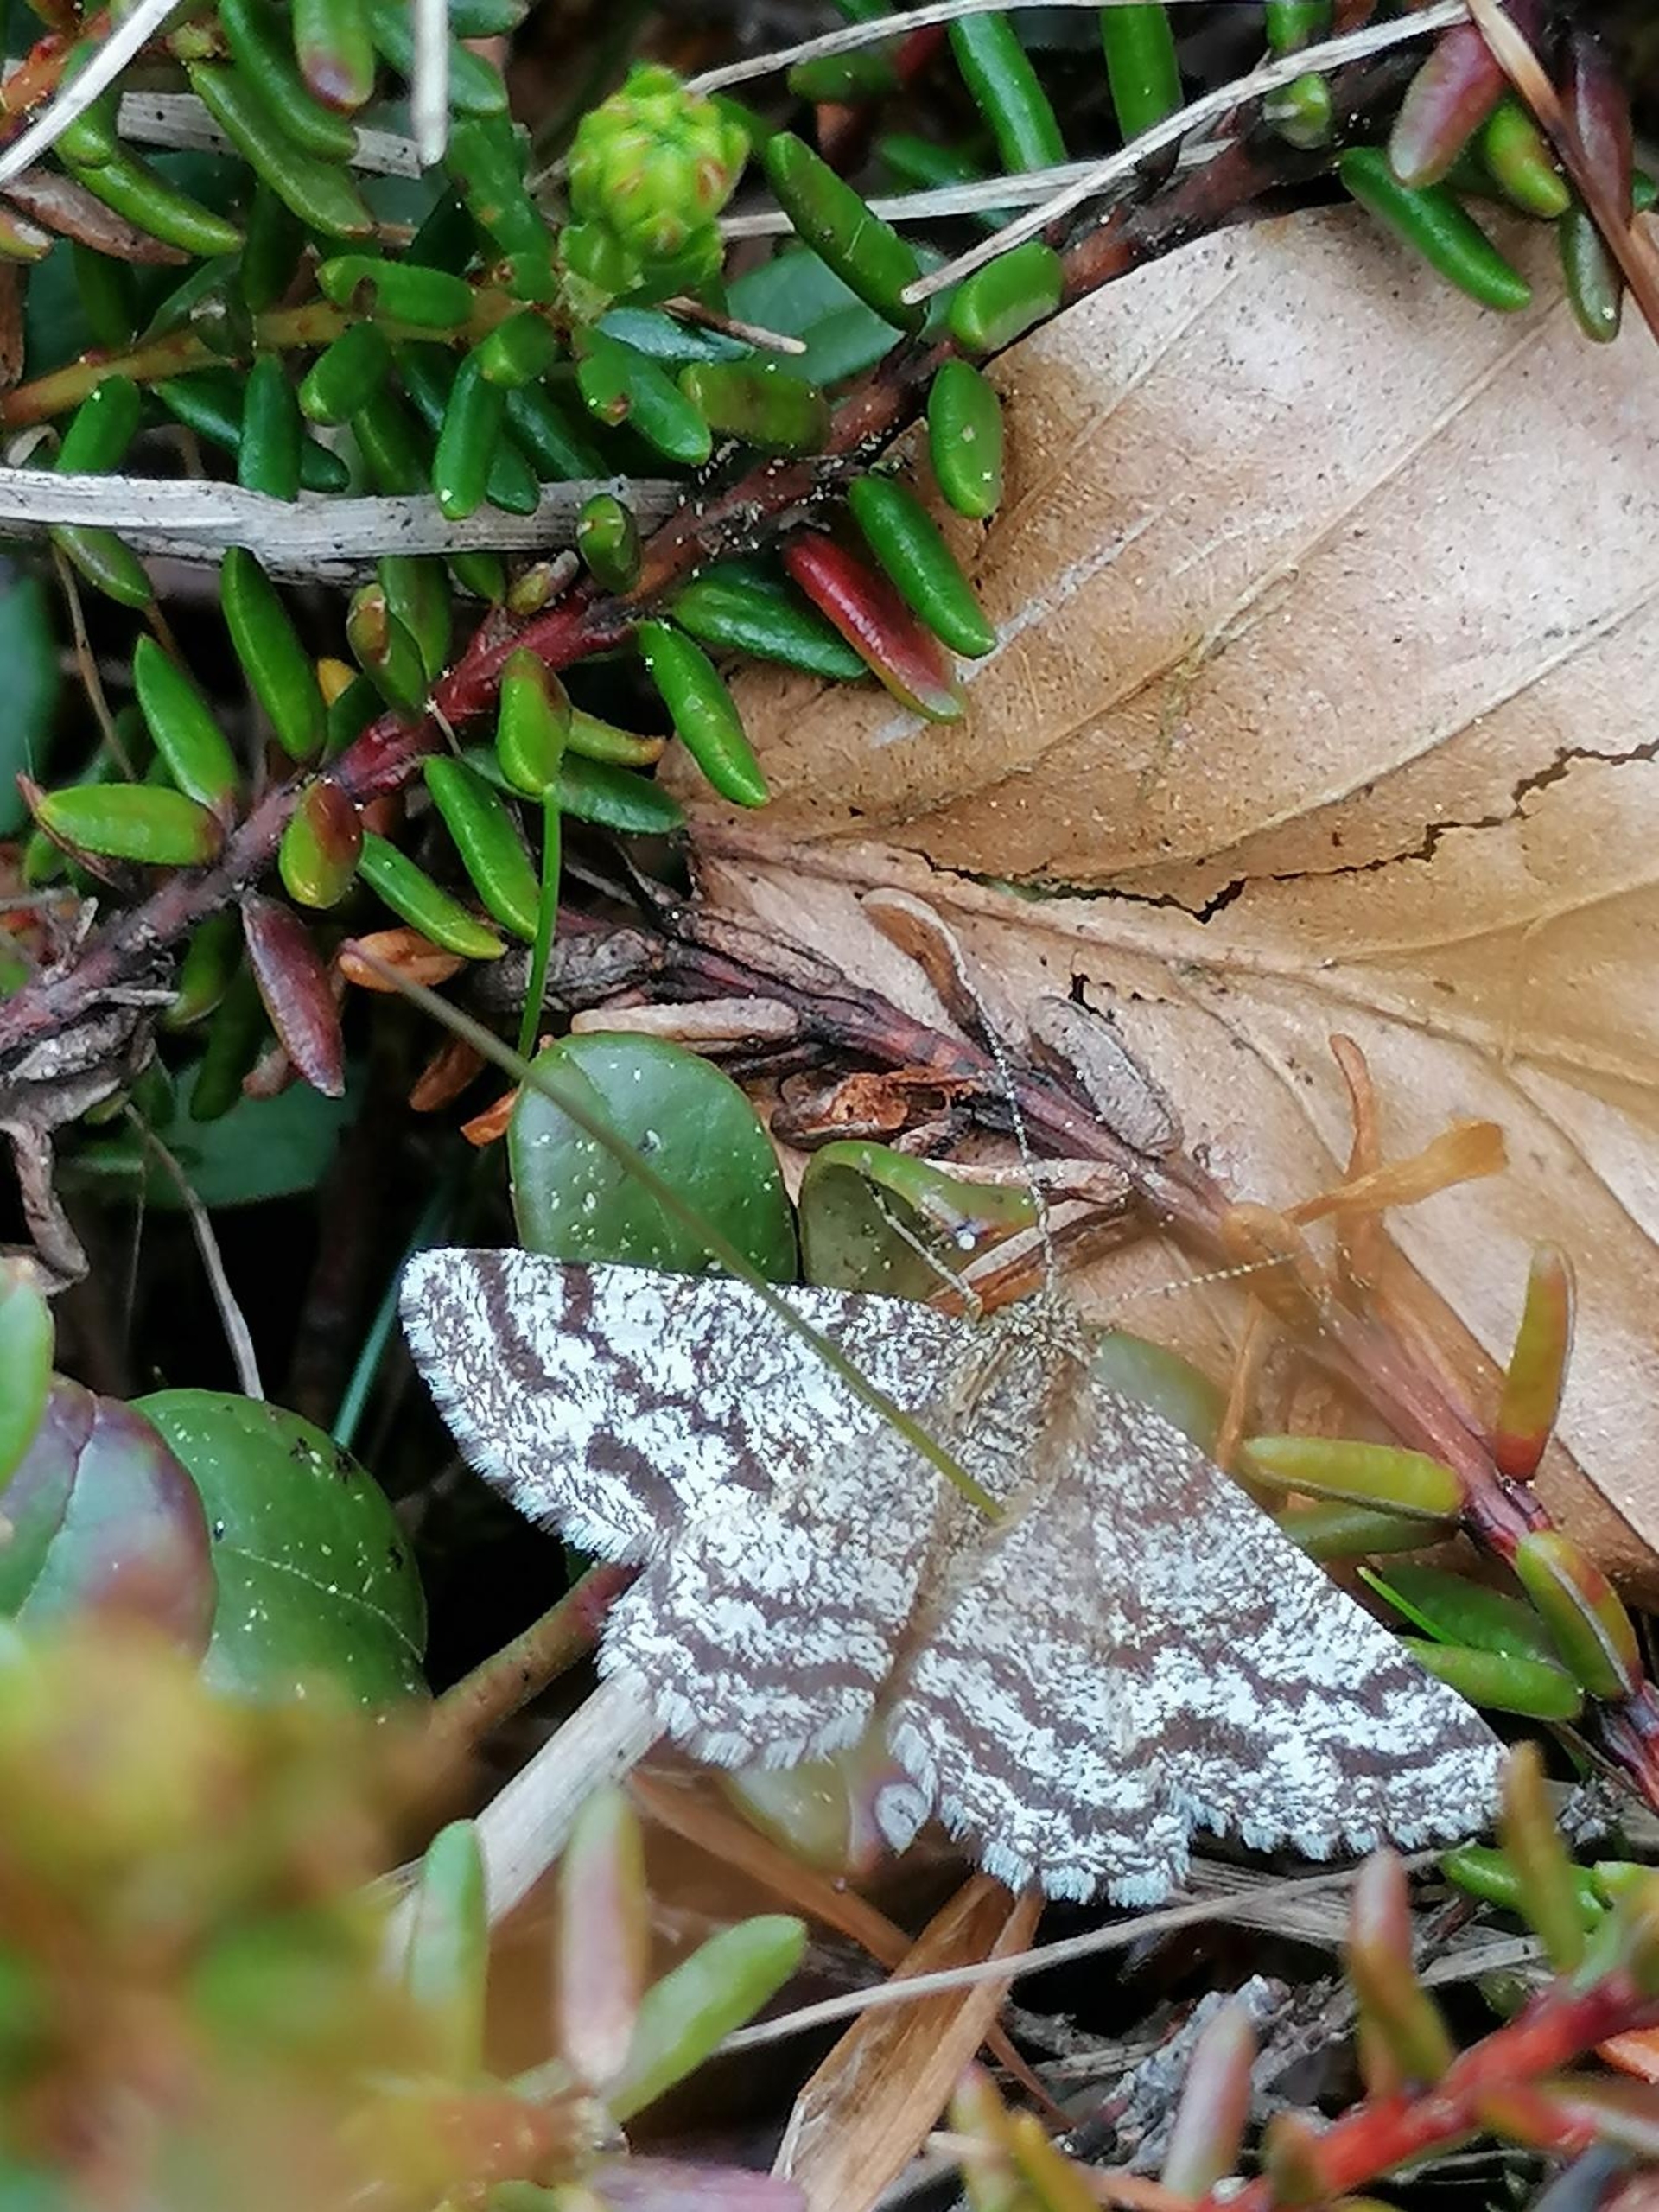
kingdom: Animalia
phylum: Arthropoda
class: Insecta
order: Lepidoptera
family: Geometridae
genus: Ematurga
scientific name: Ematurga atomaria
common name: Lyngmåler
